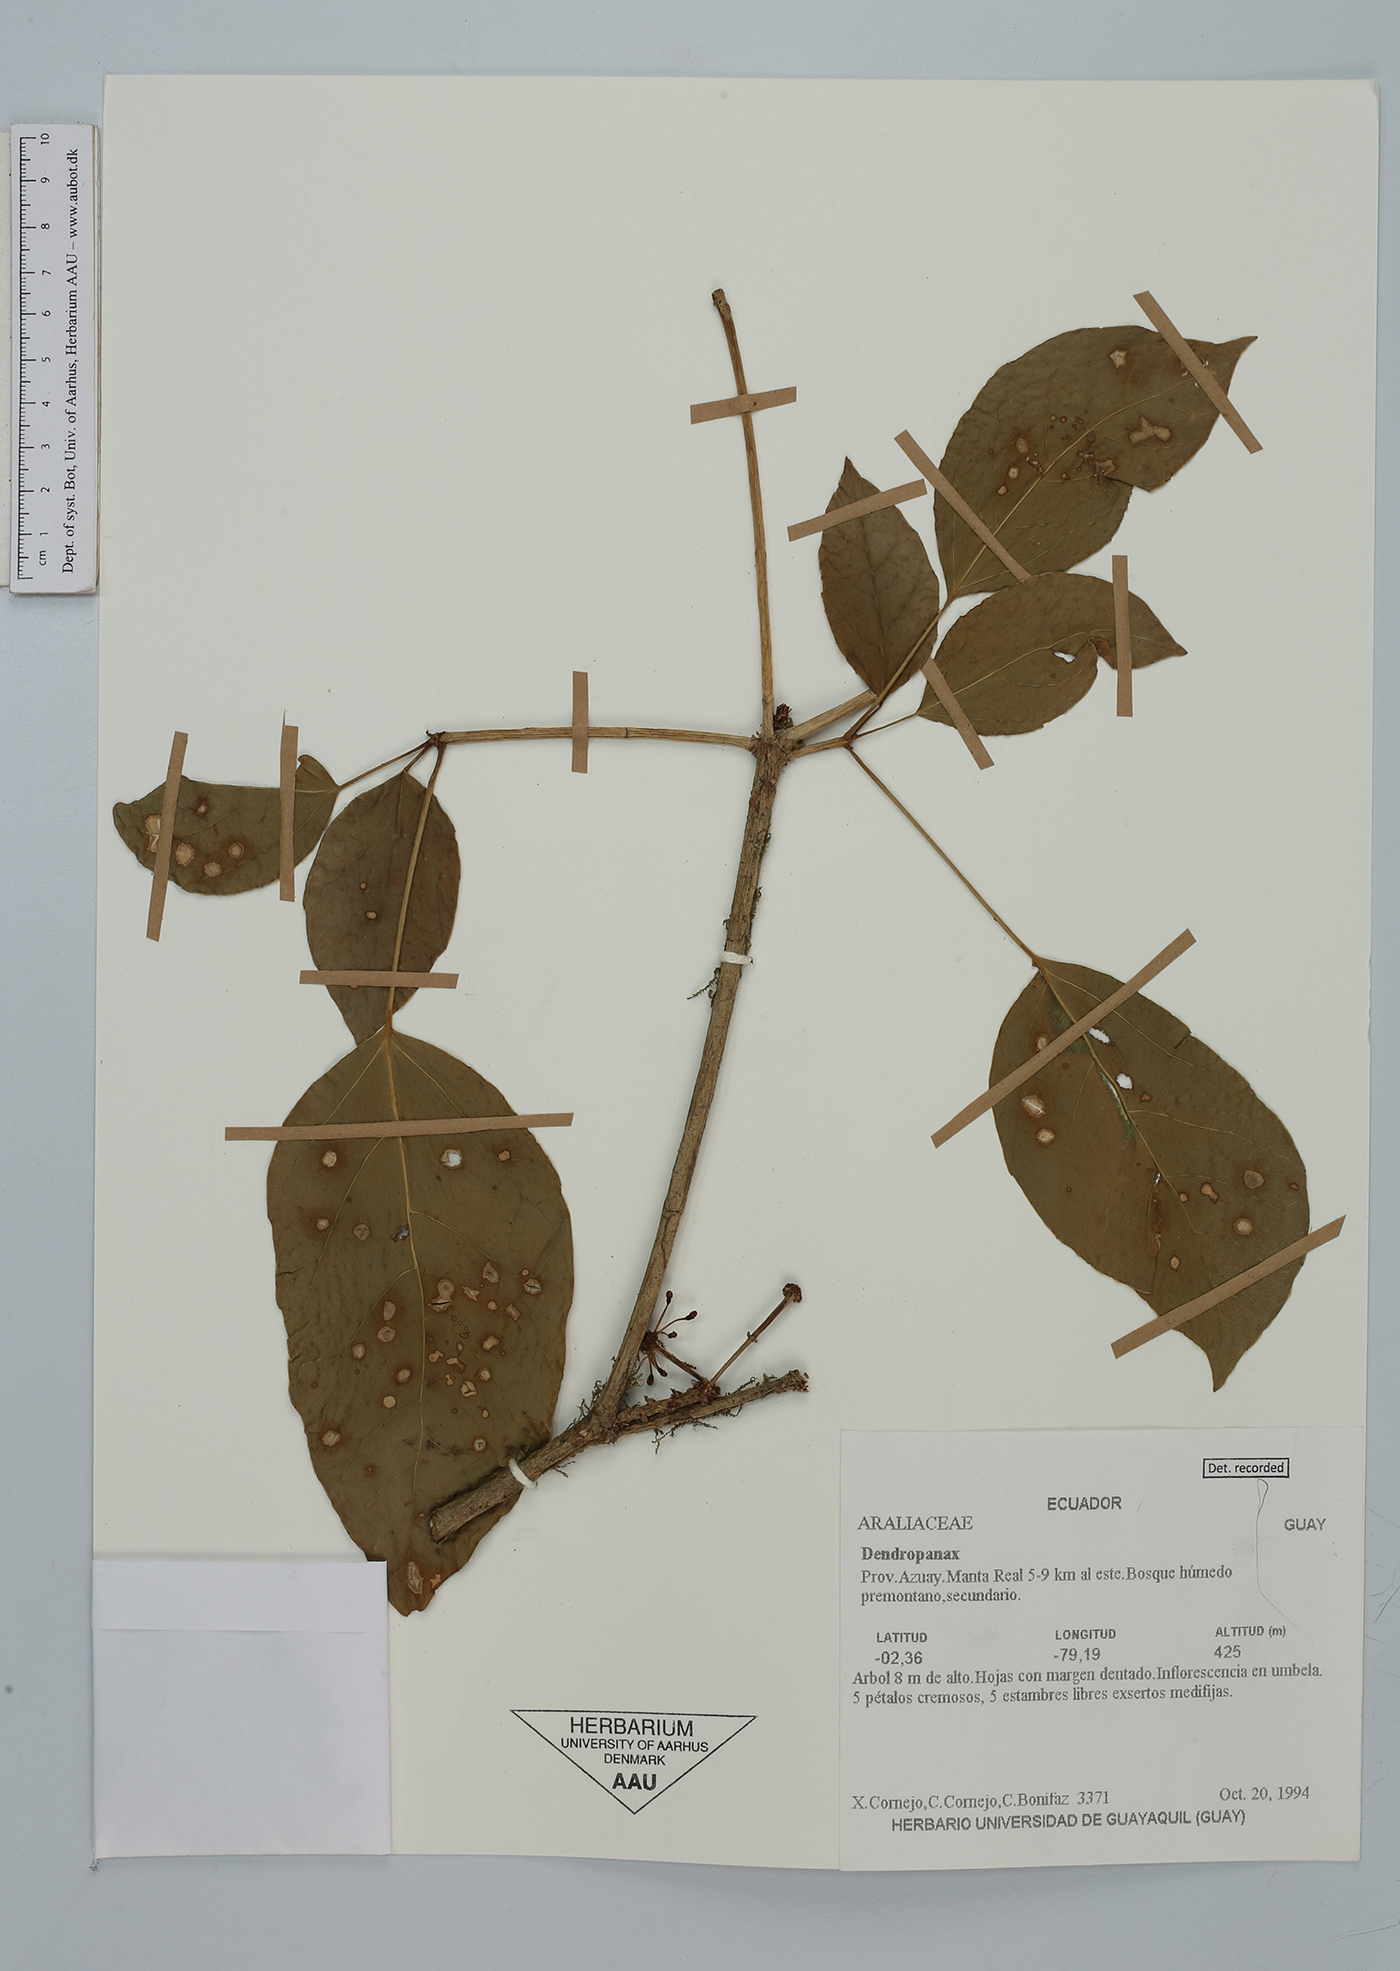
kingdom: Plantae
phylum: Tracheophyta
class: Magnoliopsida
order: Apiales
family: Araliaceae
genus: Dendropanax
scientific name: Dendropanax
